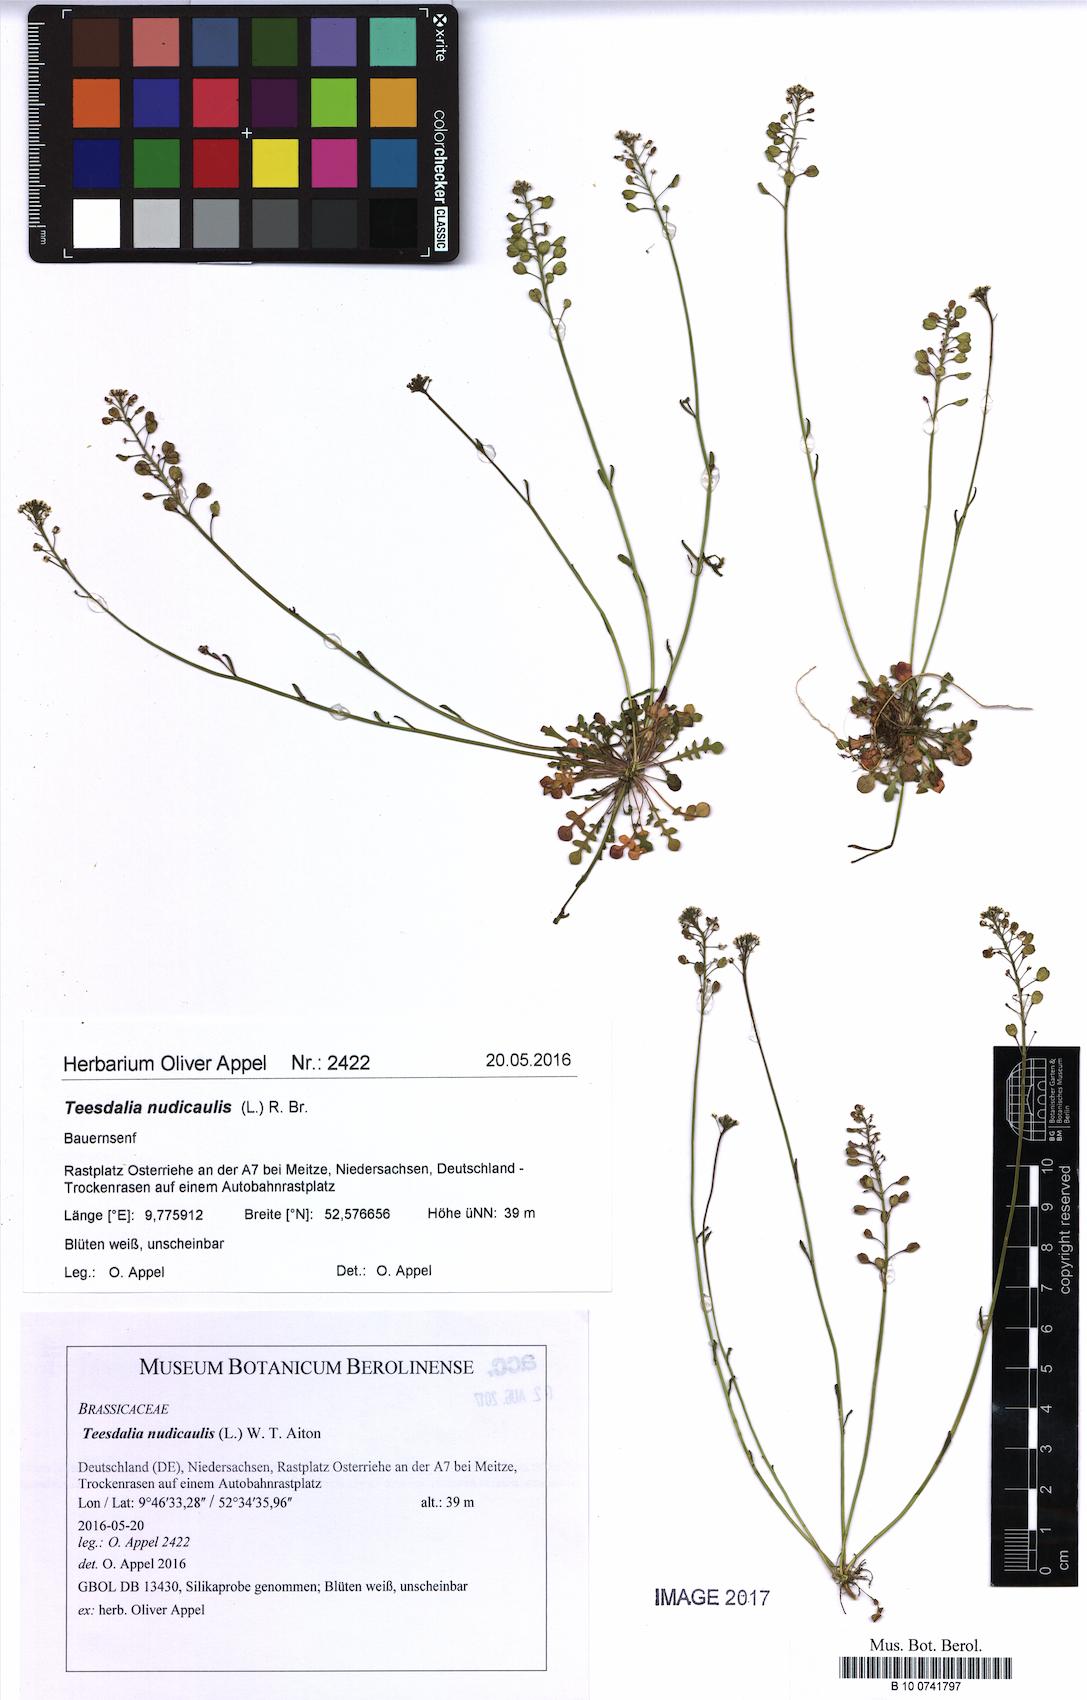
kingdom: Plantae
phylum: Tracheophyta
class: Magnoliopsida
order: Brassicales
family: Brassicaceae
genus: Teesdalia
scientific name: Teesdalia nudicaulis
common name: Shepherd's cress
